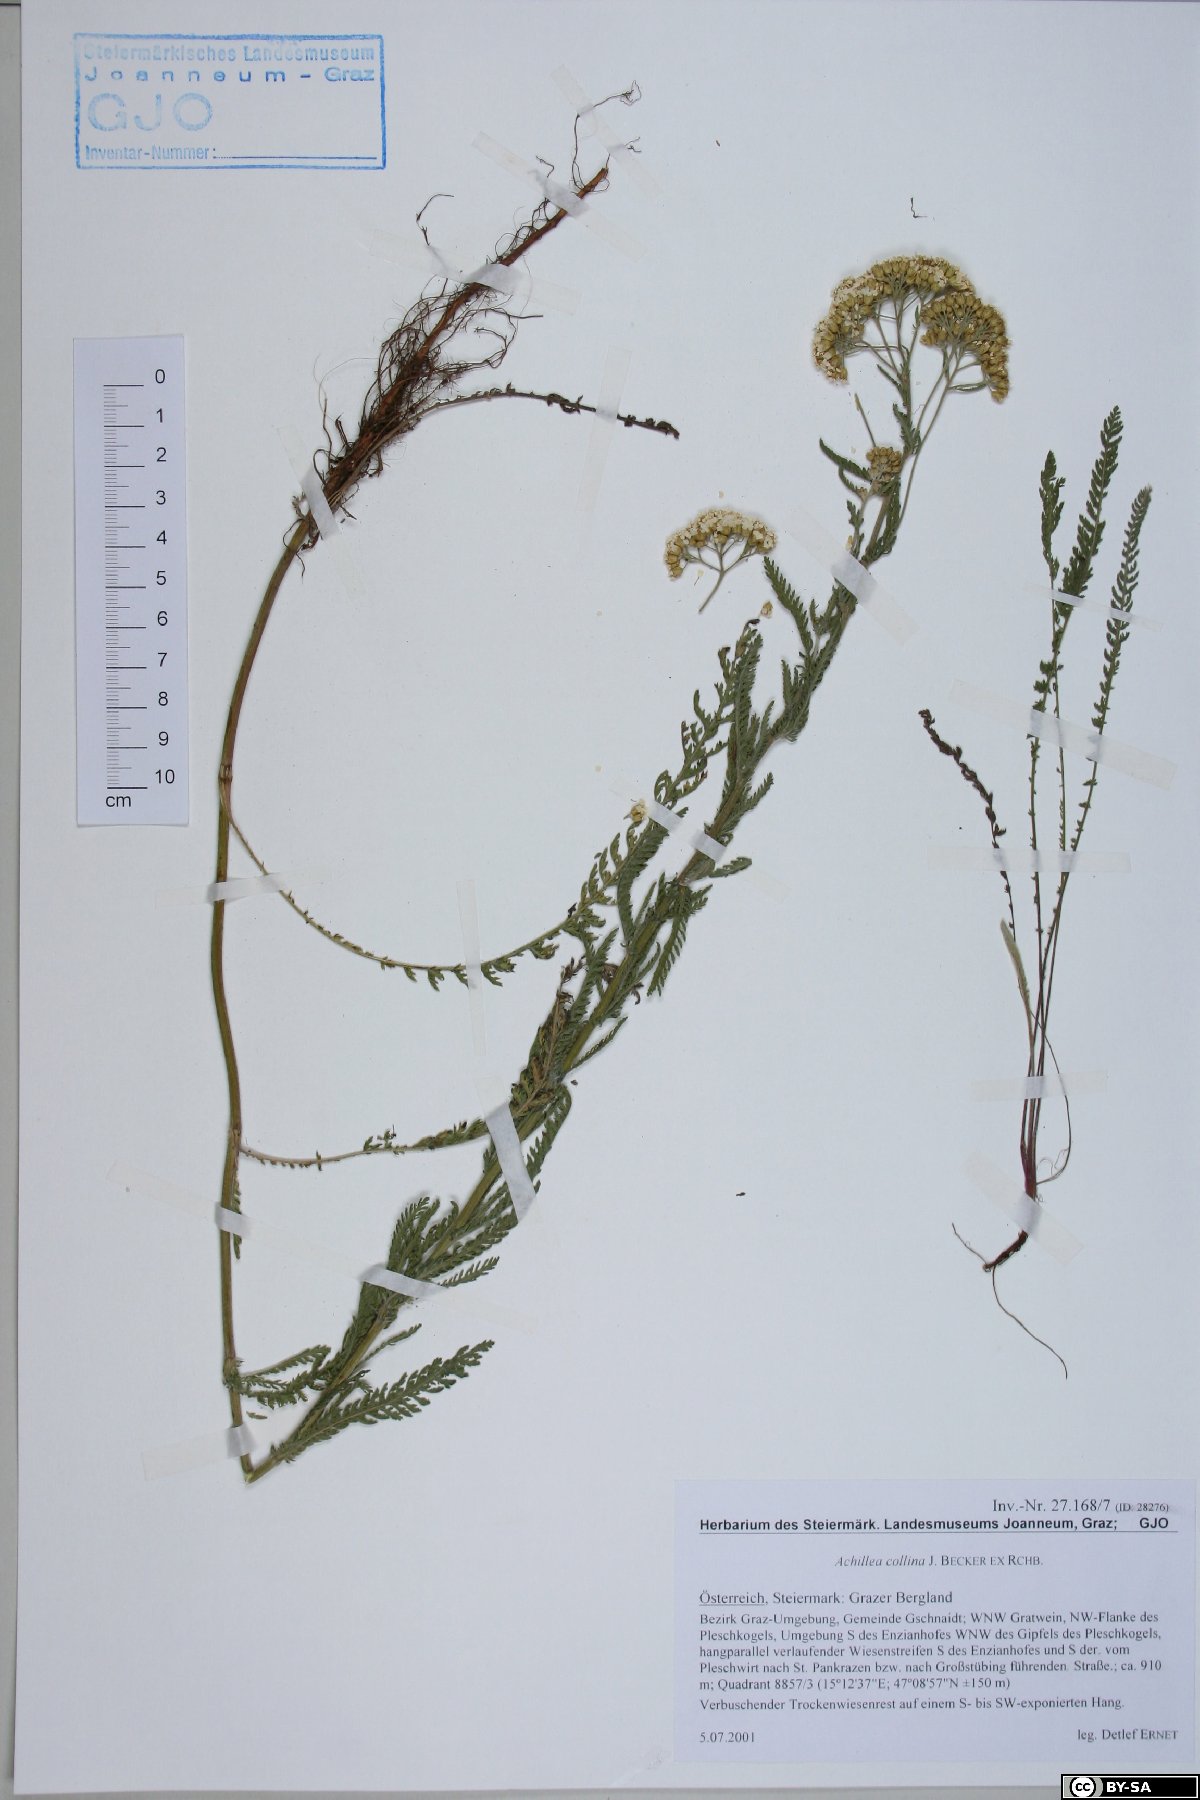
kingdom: Plantae
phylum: Tracheophyta
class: Magnoliopsida
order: Asterales
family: Asteraceae
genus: Achillea
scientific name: Achillea collina
